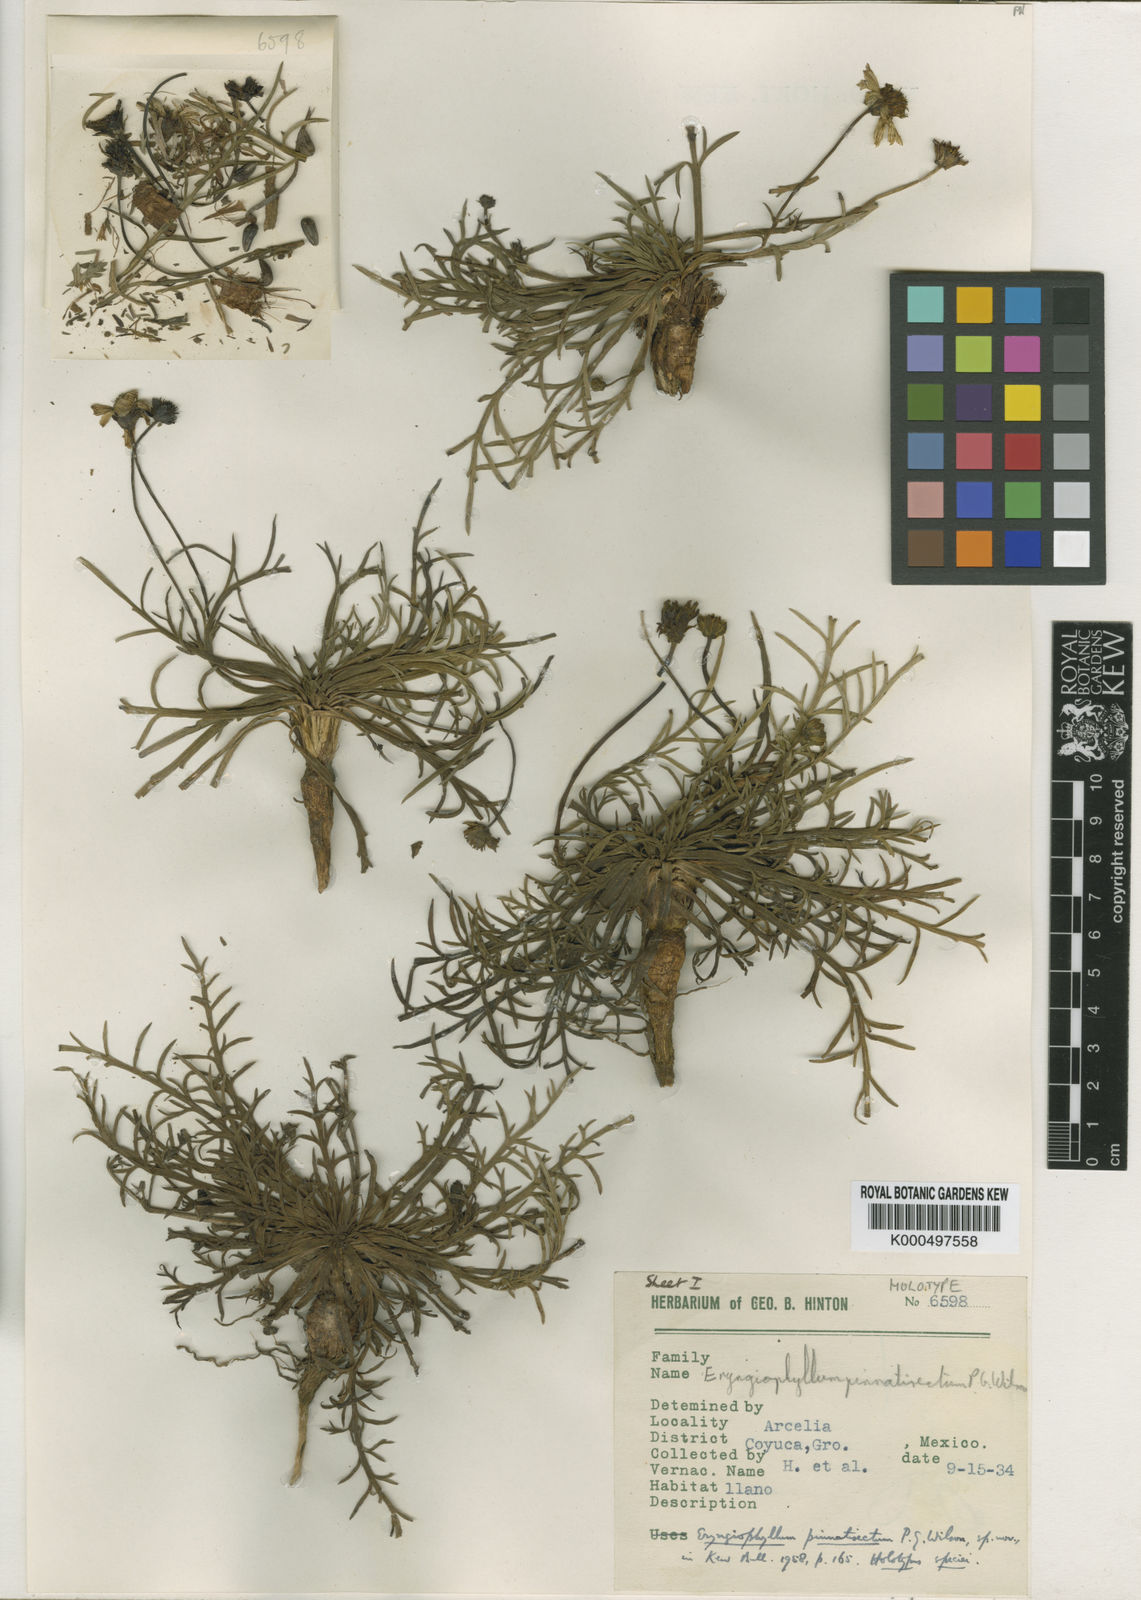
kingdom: Plantae
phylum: Tracheophyta
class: Magnoliopsida
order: Asterales
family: Asteraceae
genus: Chrysanthellum
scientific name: Chrysanthellum pinnatisectum
